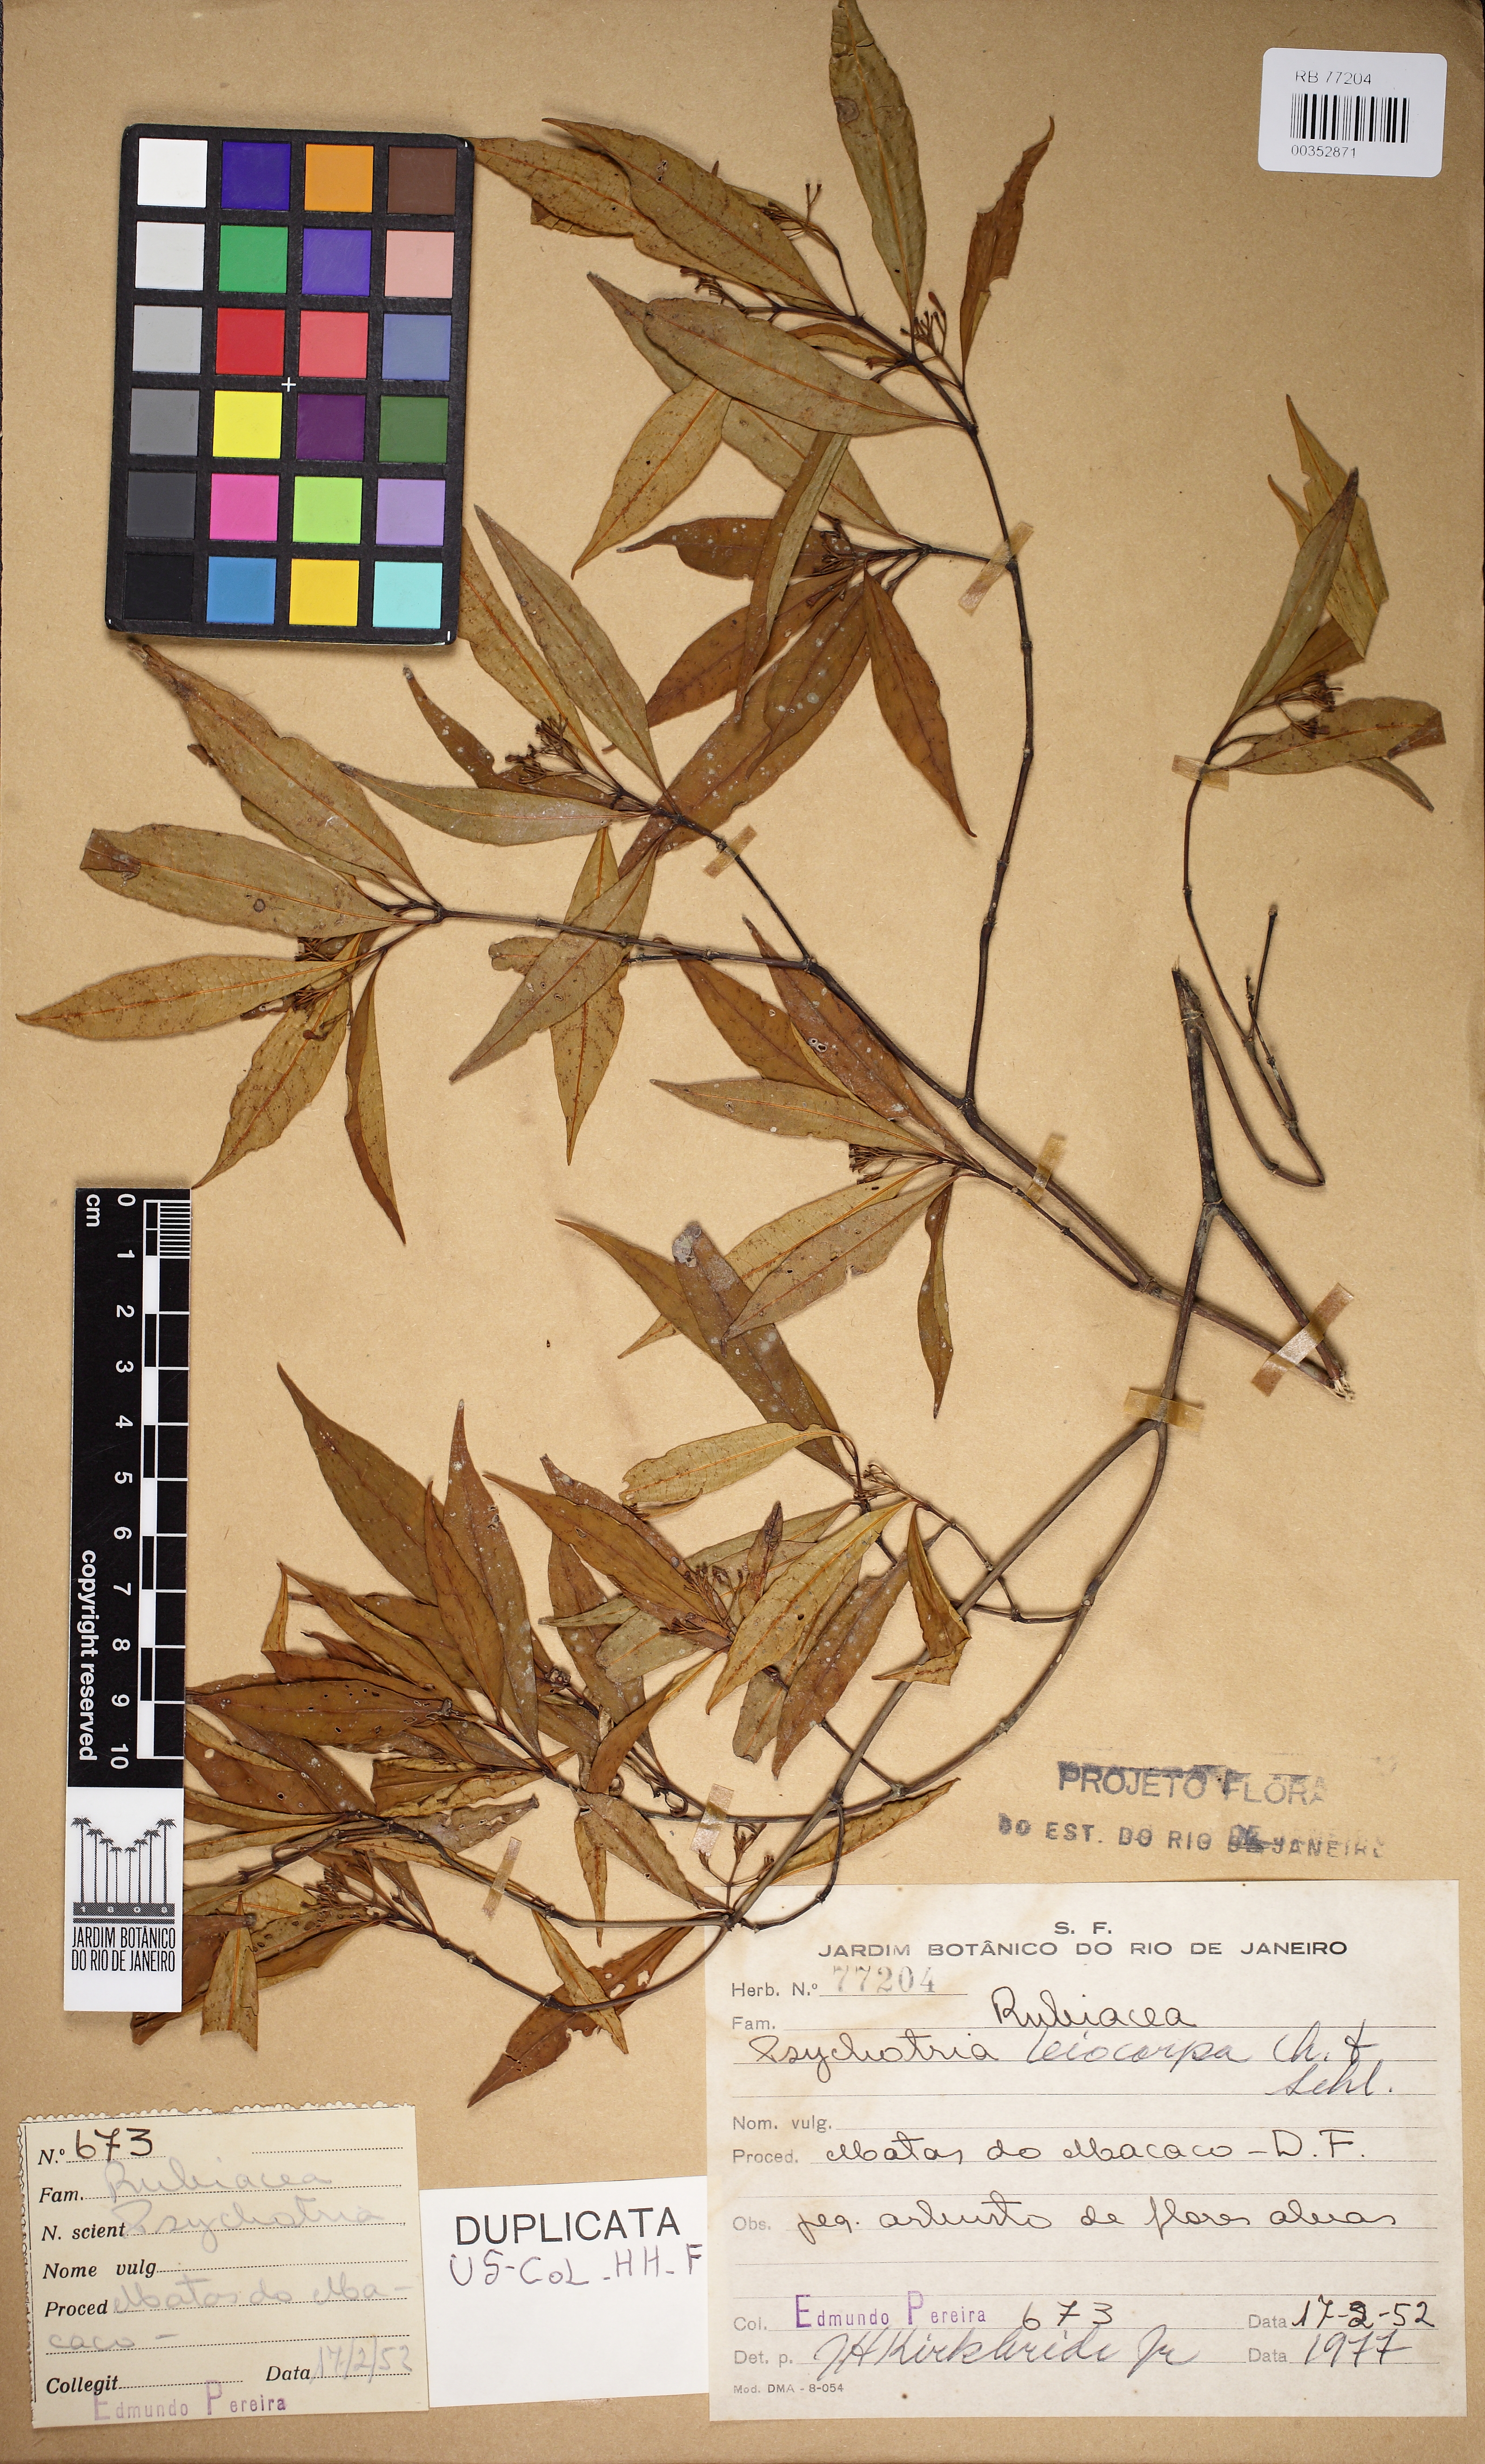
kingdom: Plantae
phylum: Tracheophyta
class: Magnoliopsida
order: Gentianales
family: Rubiaceae
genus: Psychotria
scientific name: Psychotria leiocarpa
